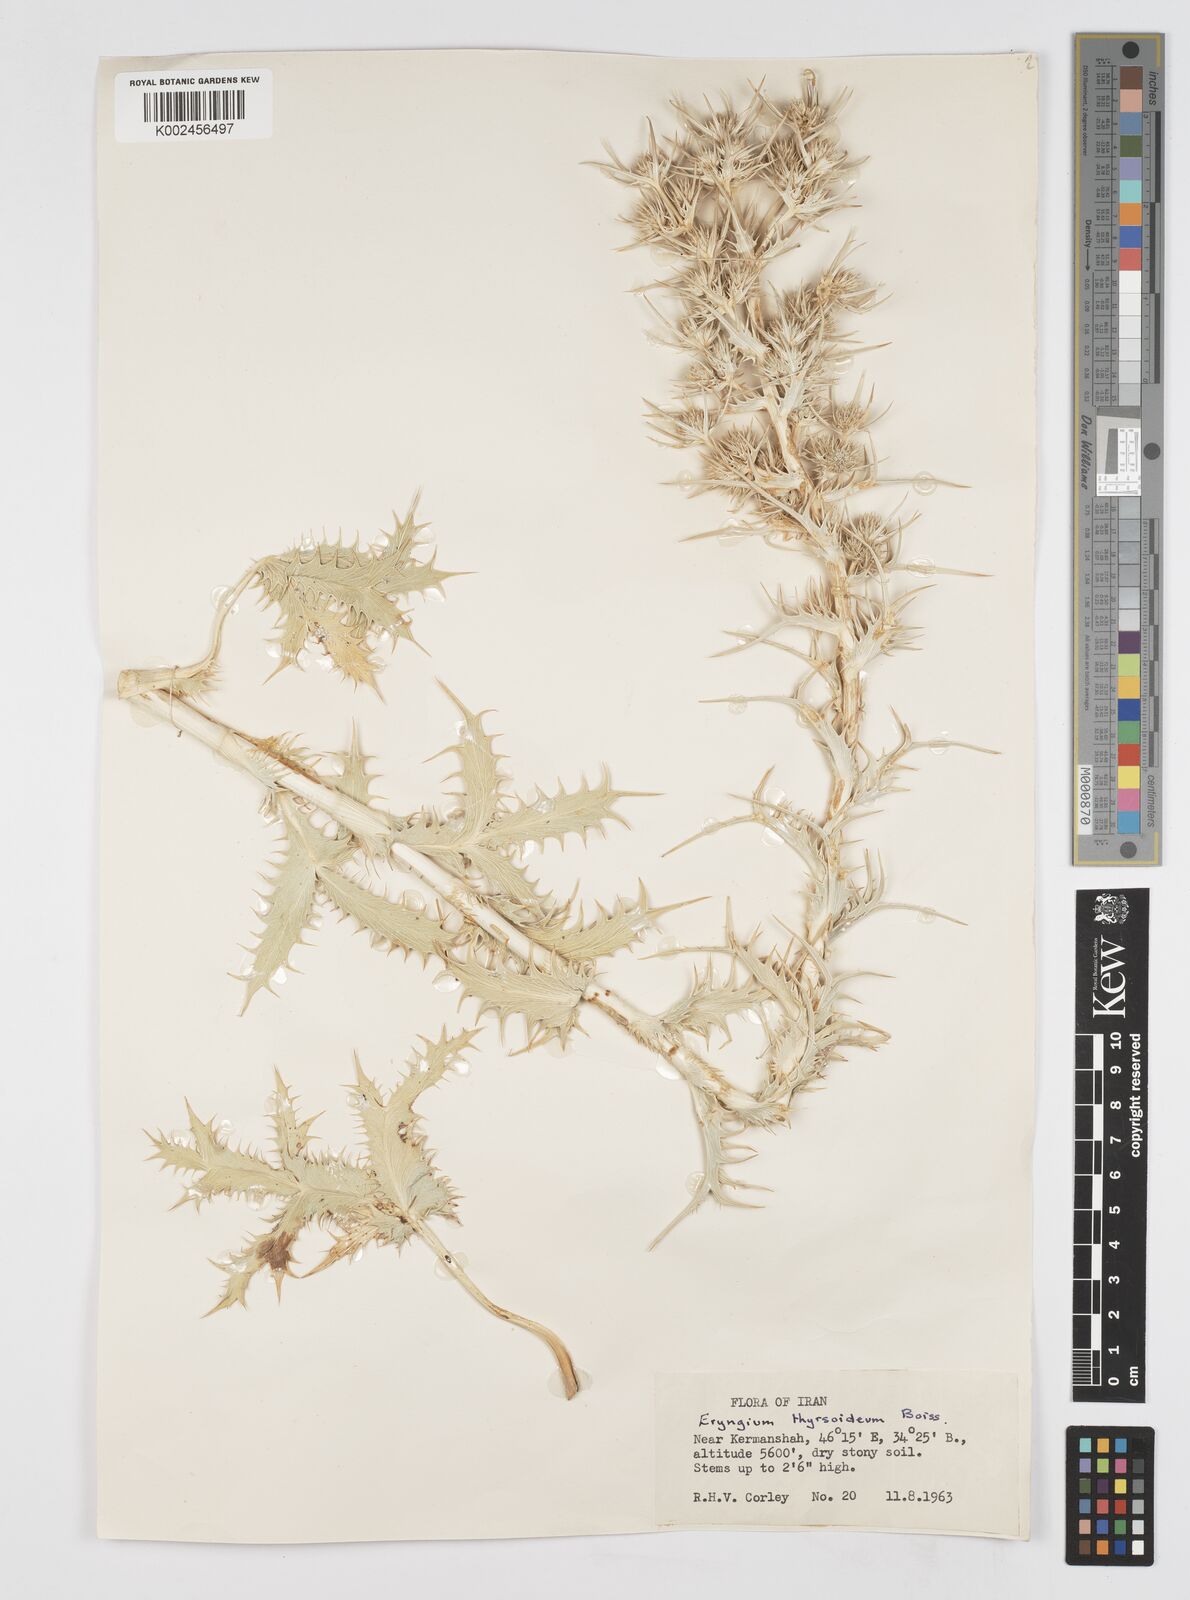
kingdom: Plantae
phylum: Tracheophyta
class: Magnoliopsida
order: Apiales
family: Apiaceae
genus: Eryngium
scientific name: Eryngium thyrsoideum
